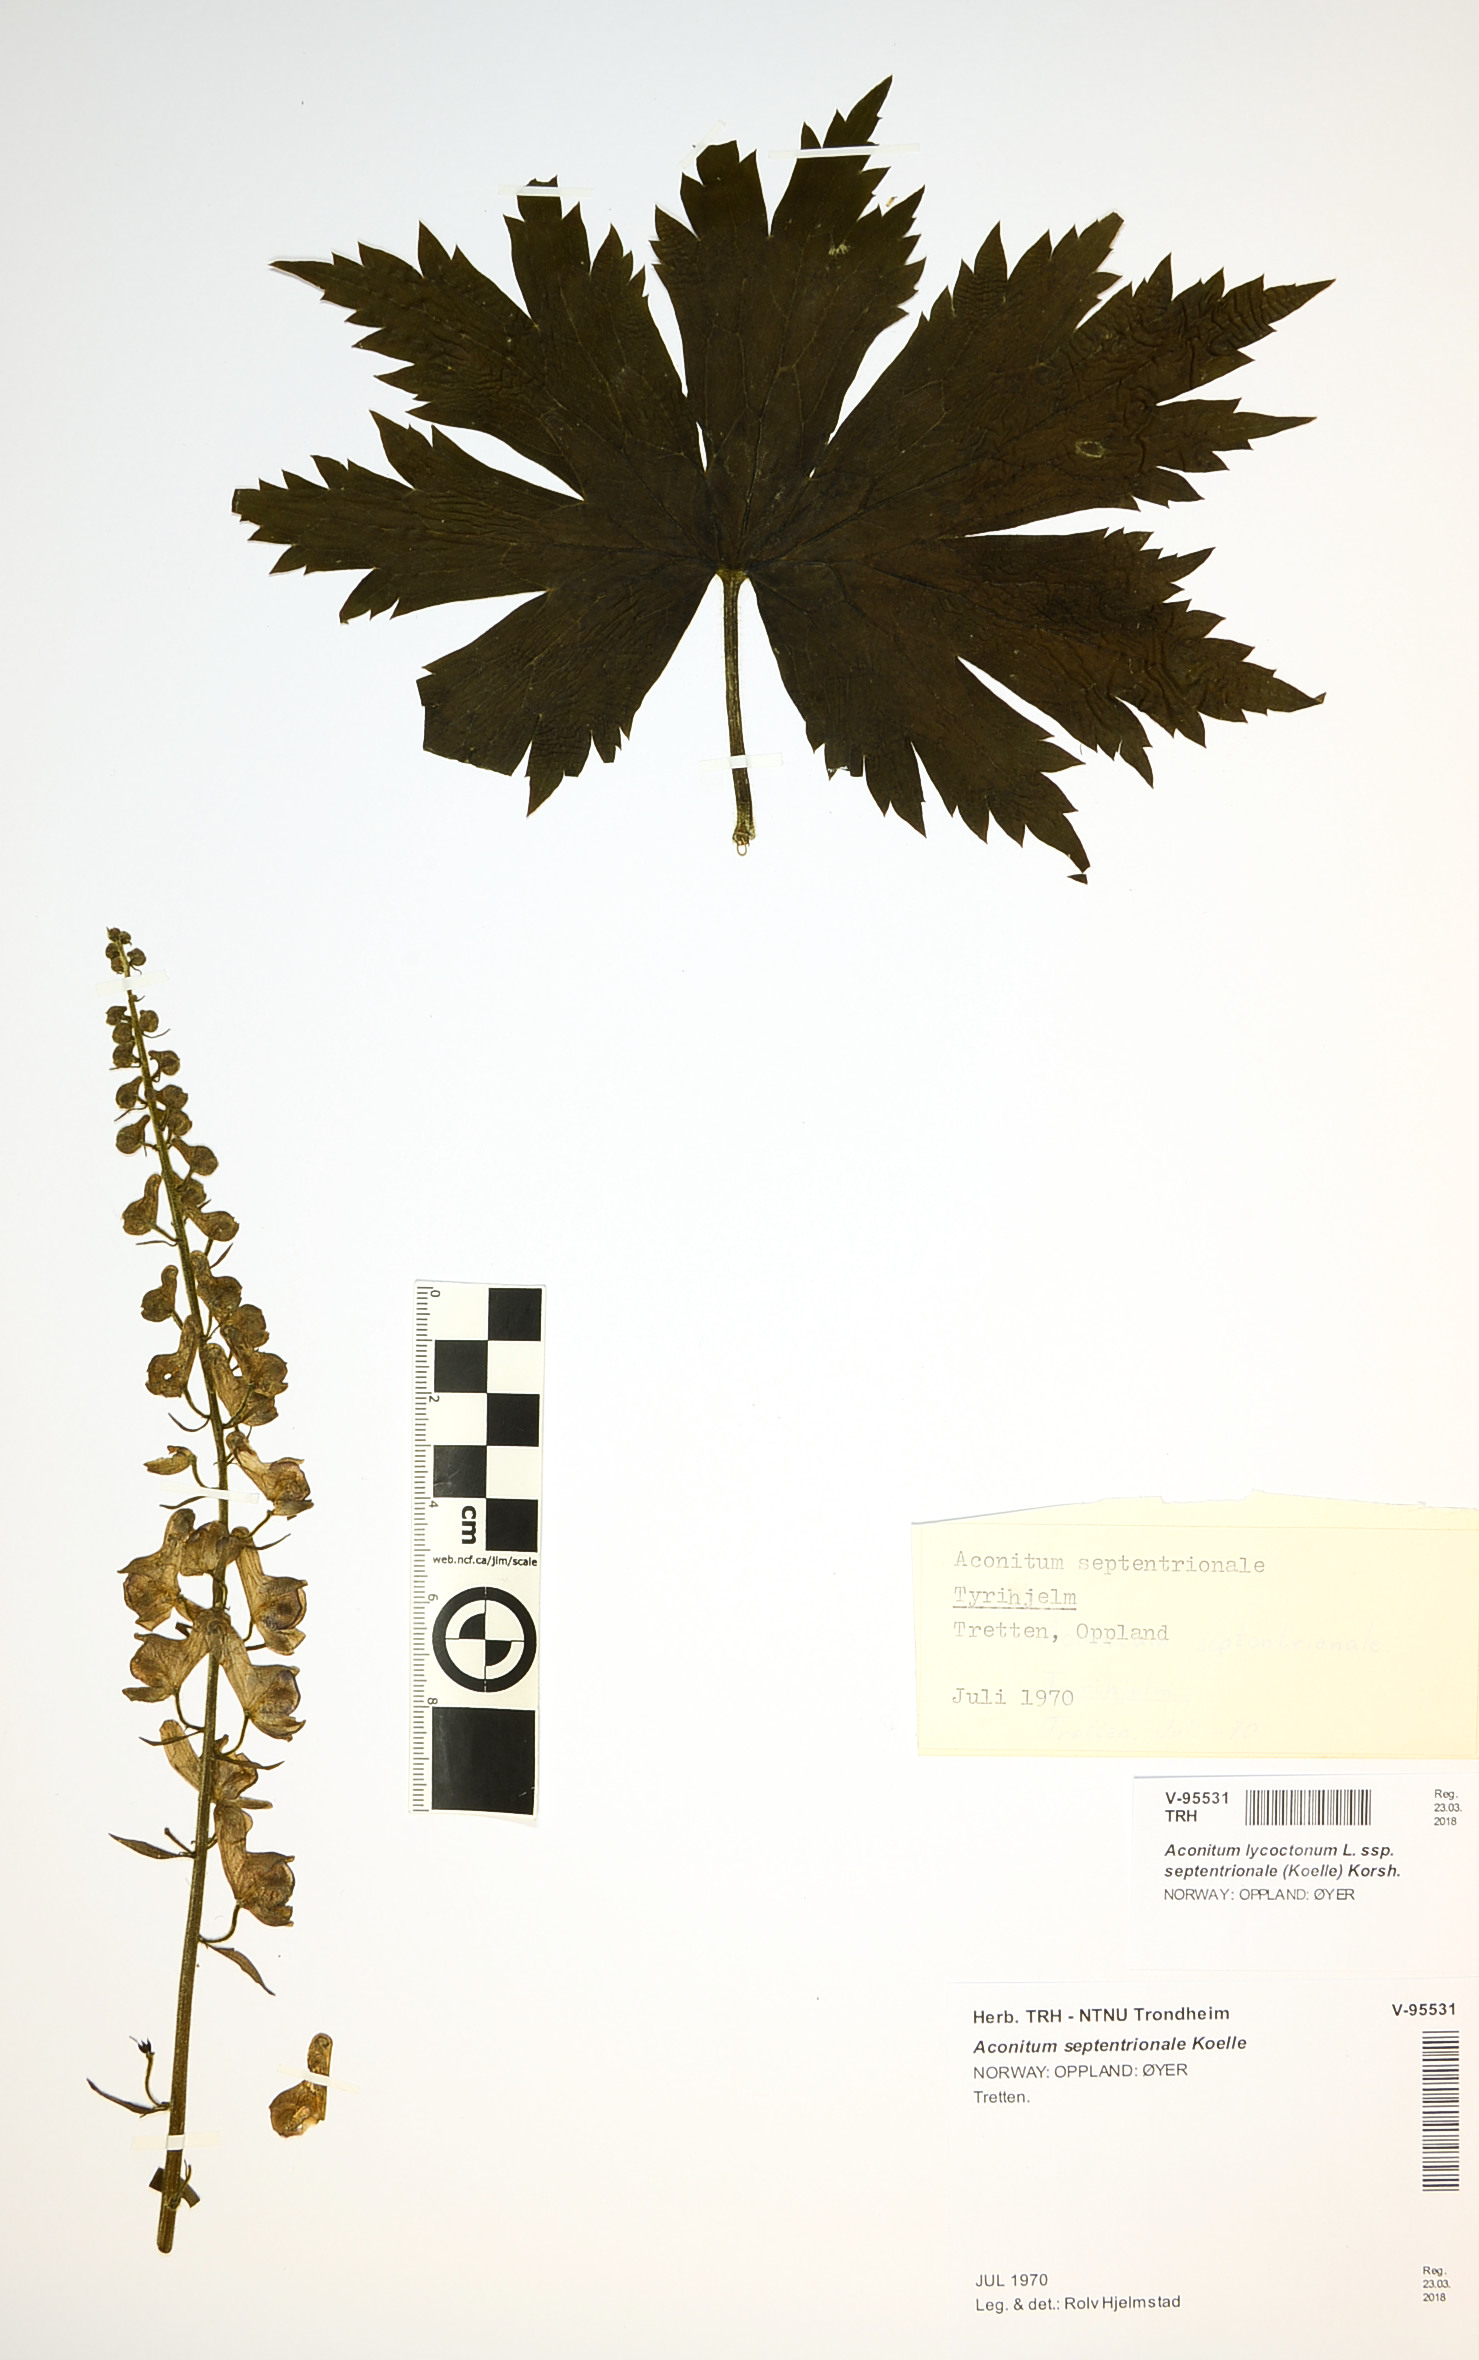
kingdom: Plantae
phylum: Tracheophyta
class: Magnoliopsida
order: Ranunculales
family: Ranunculaceae
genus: Aconitum
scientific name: Aconitum septentrionale
